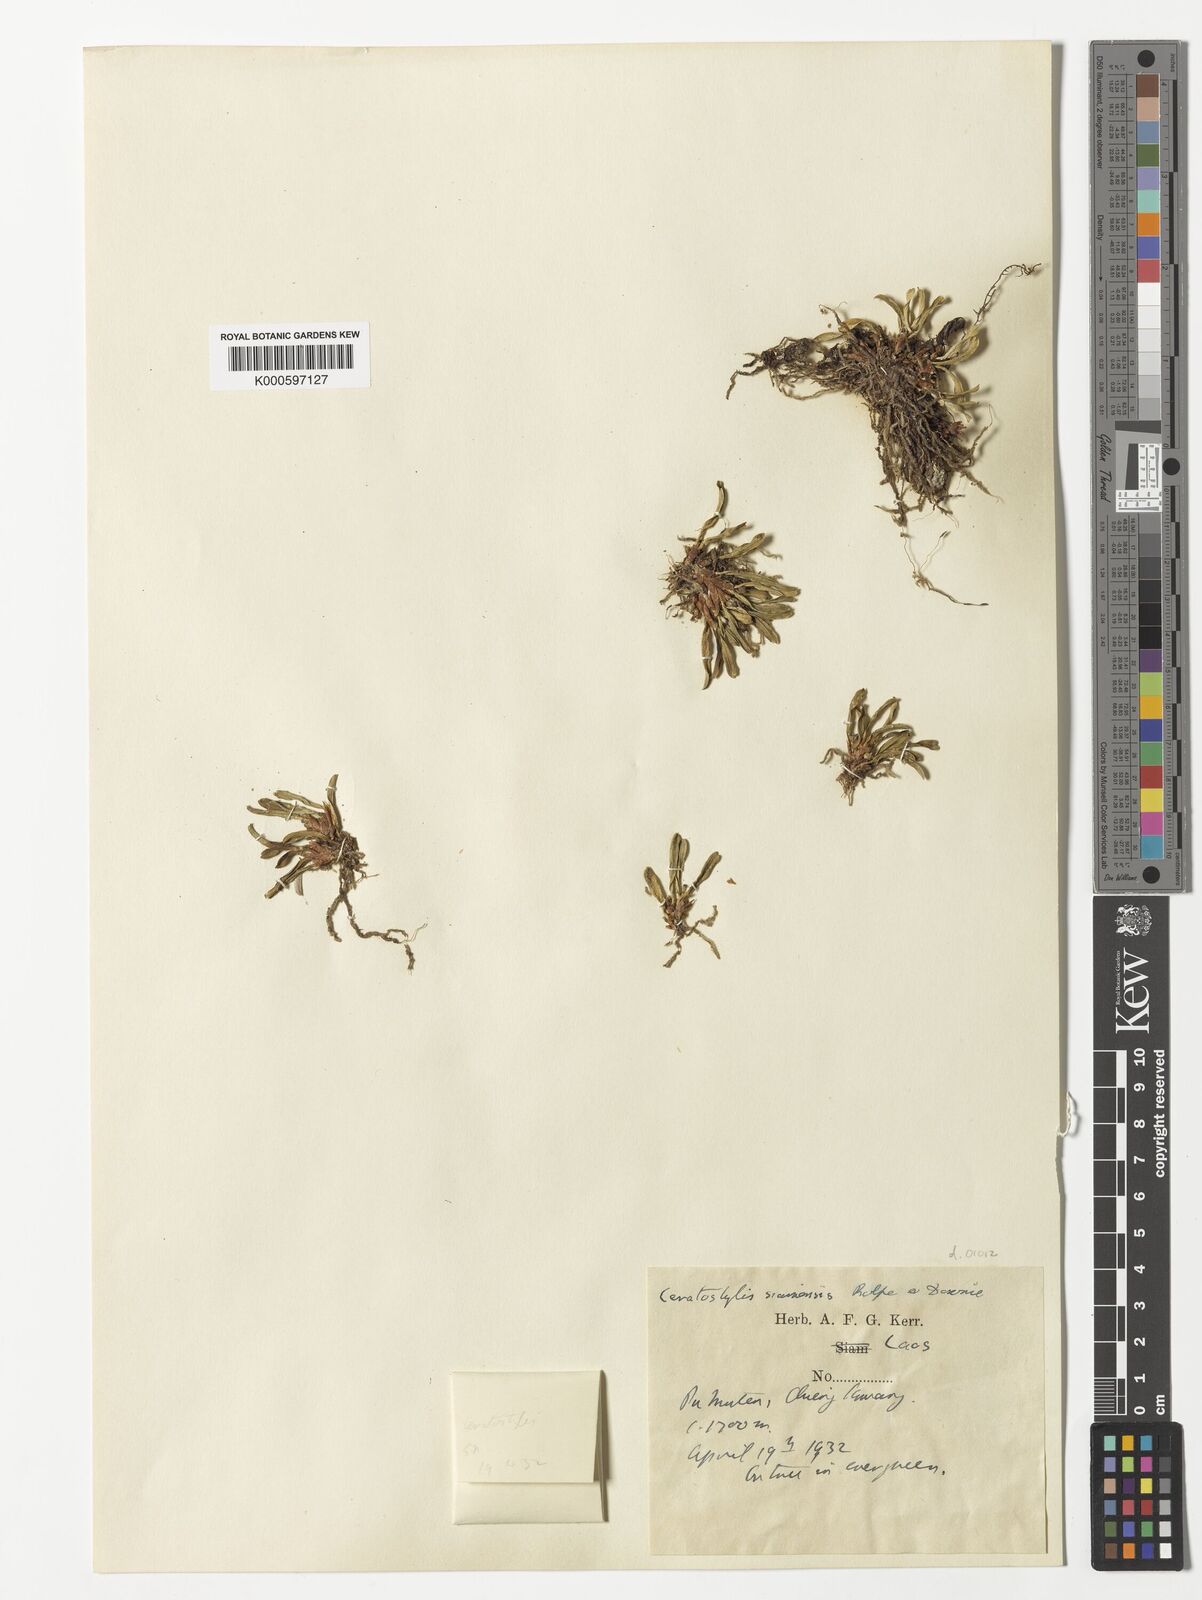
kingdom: Plantae
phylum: Tracheophyta
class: Liliopsida
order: Asparagales
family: Orchidaceae
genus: Ceratostylis
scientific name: Ceratostylis siamensis
